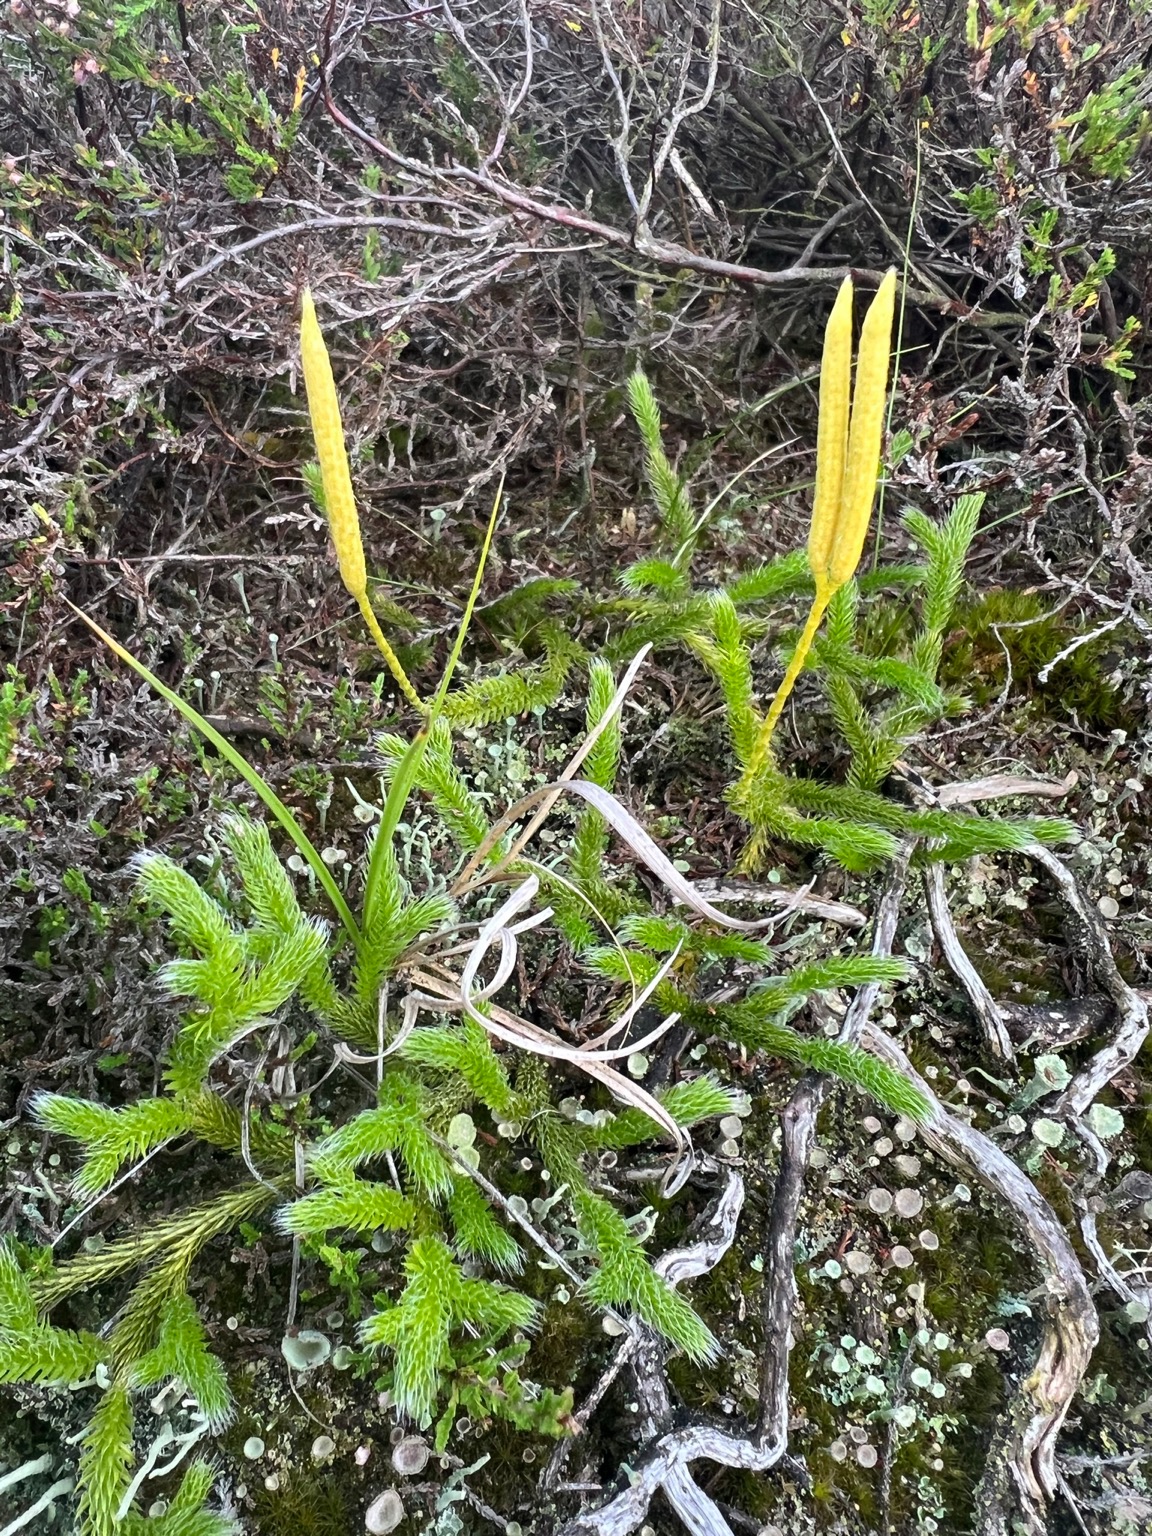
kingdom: Plantae
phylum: Tracheophyta
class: Lycopodiopsida
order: Lycopodiales
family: Lycopodiaceae
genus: Lycopodium
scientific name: Lycopodium clavatum
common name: Almindelig ulvefod
